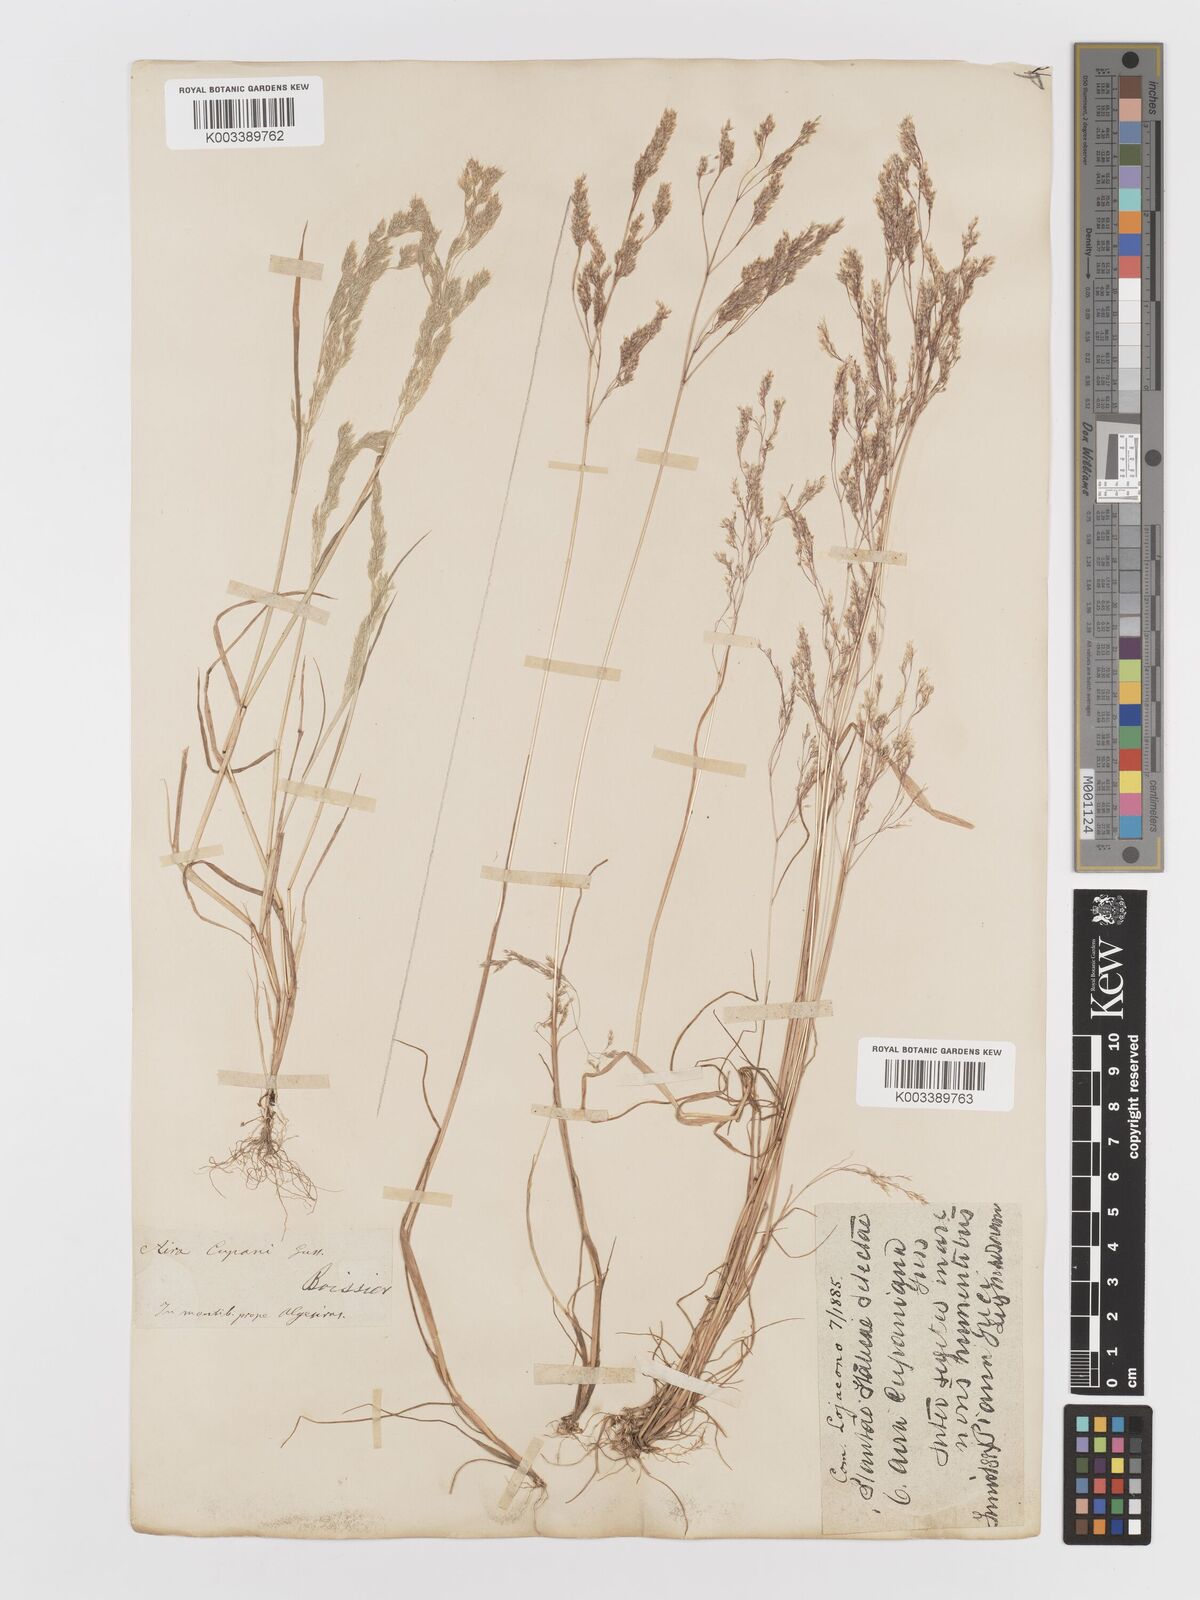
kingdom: Plantae
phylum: Tracheophyta
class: Liliopsida
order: Poales
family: Poaceae
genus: Aira
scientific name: Aira cupaniana
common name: Silver hairgrass
